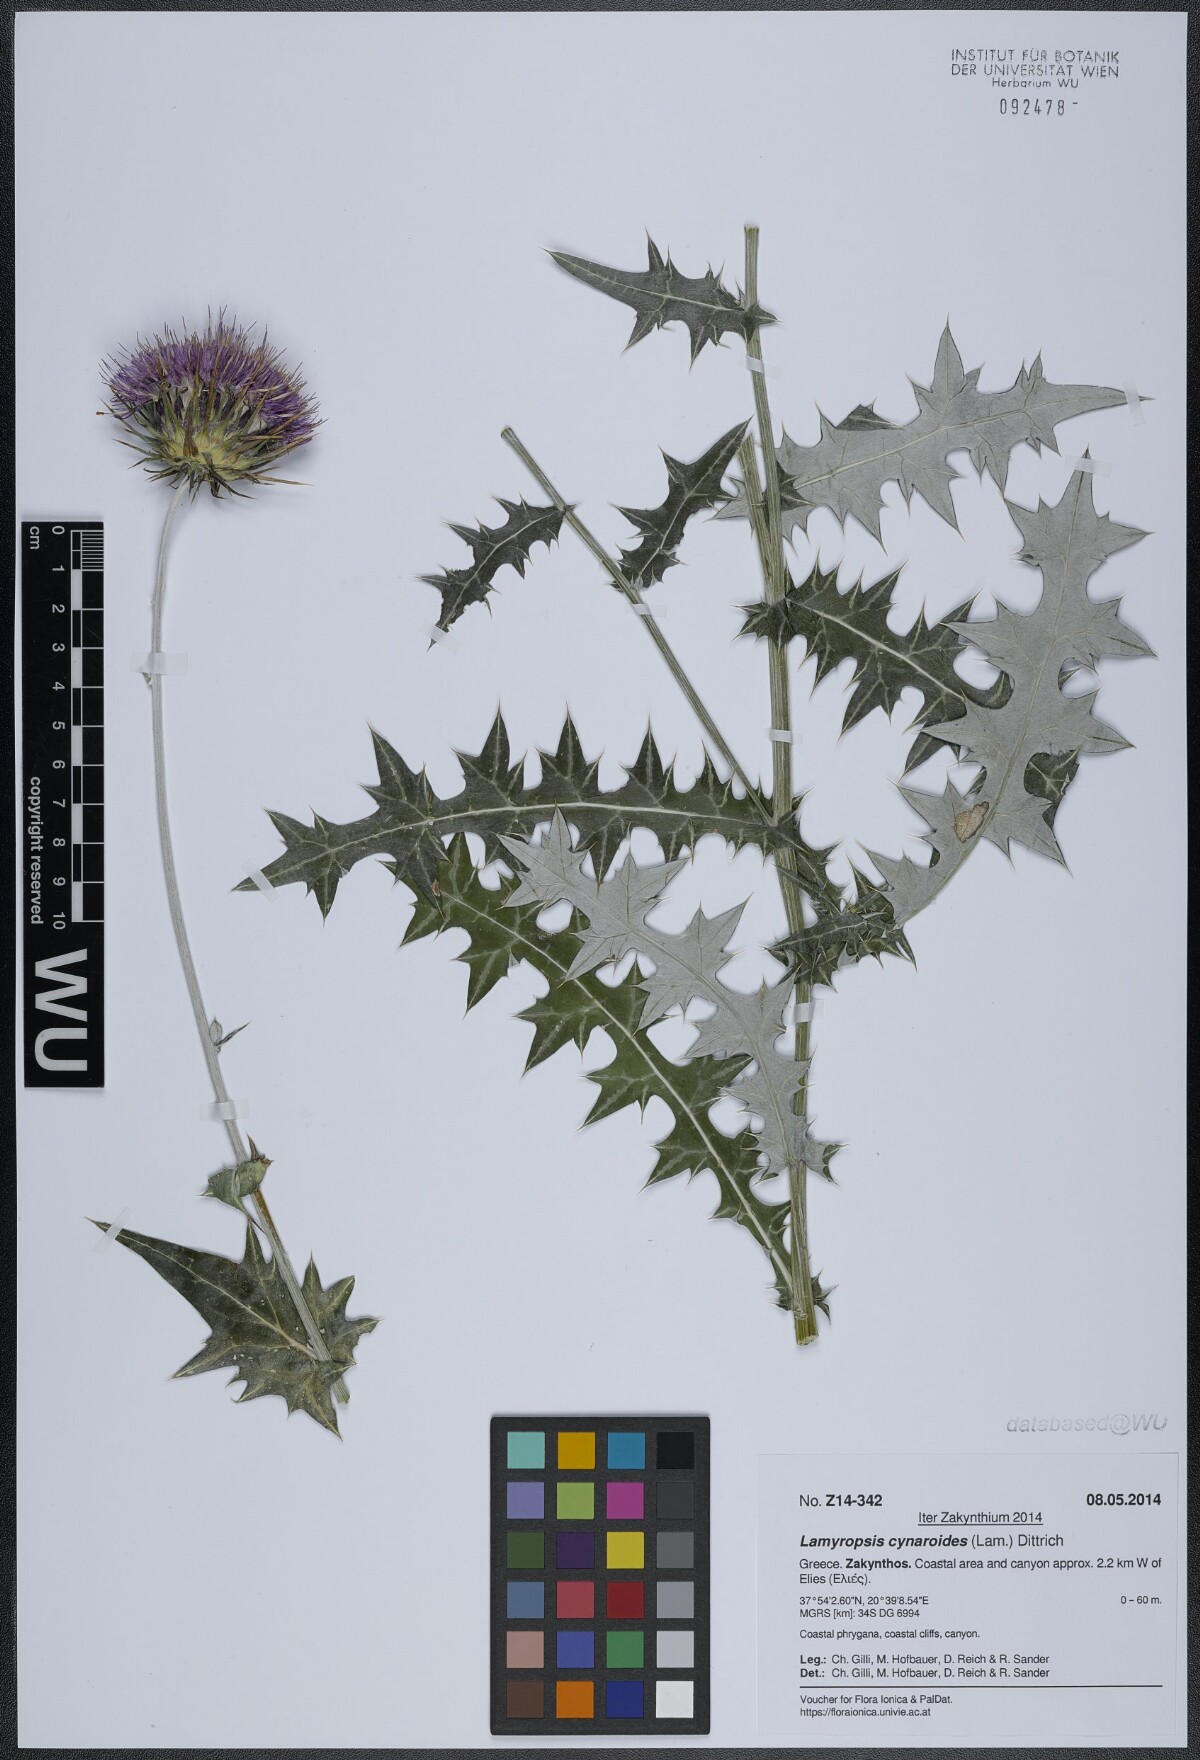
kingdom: Plantae
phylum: Tracheophyta
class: Magnoliopsida
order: Asterales
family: Asteraceae
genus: Lamyropsis
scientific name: Lamyropsis cynaroides
